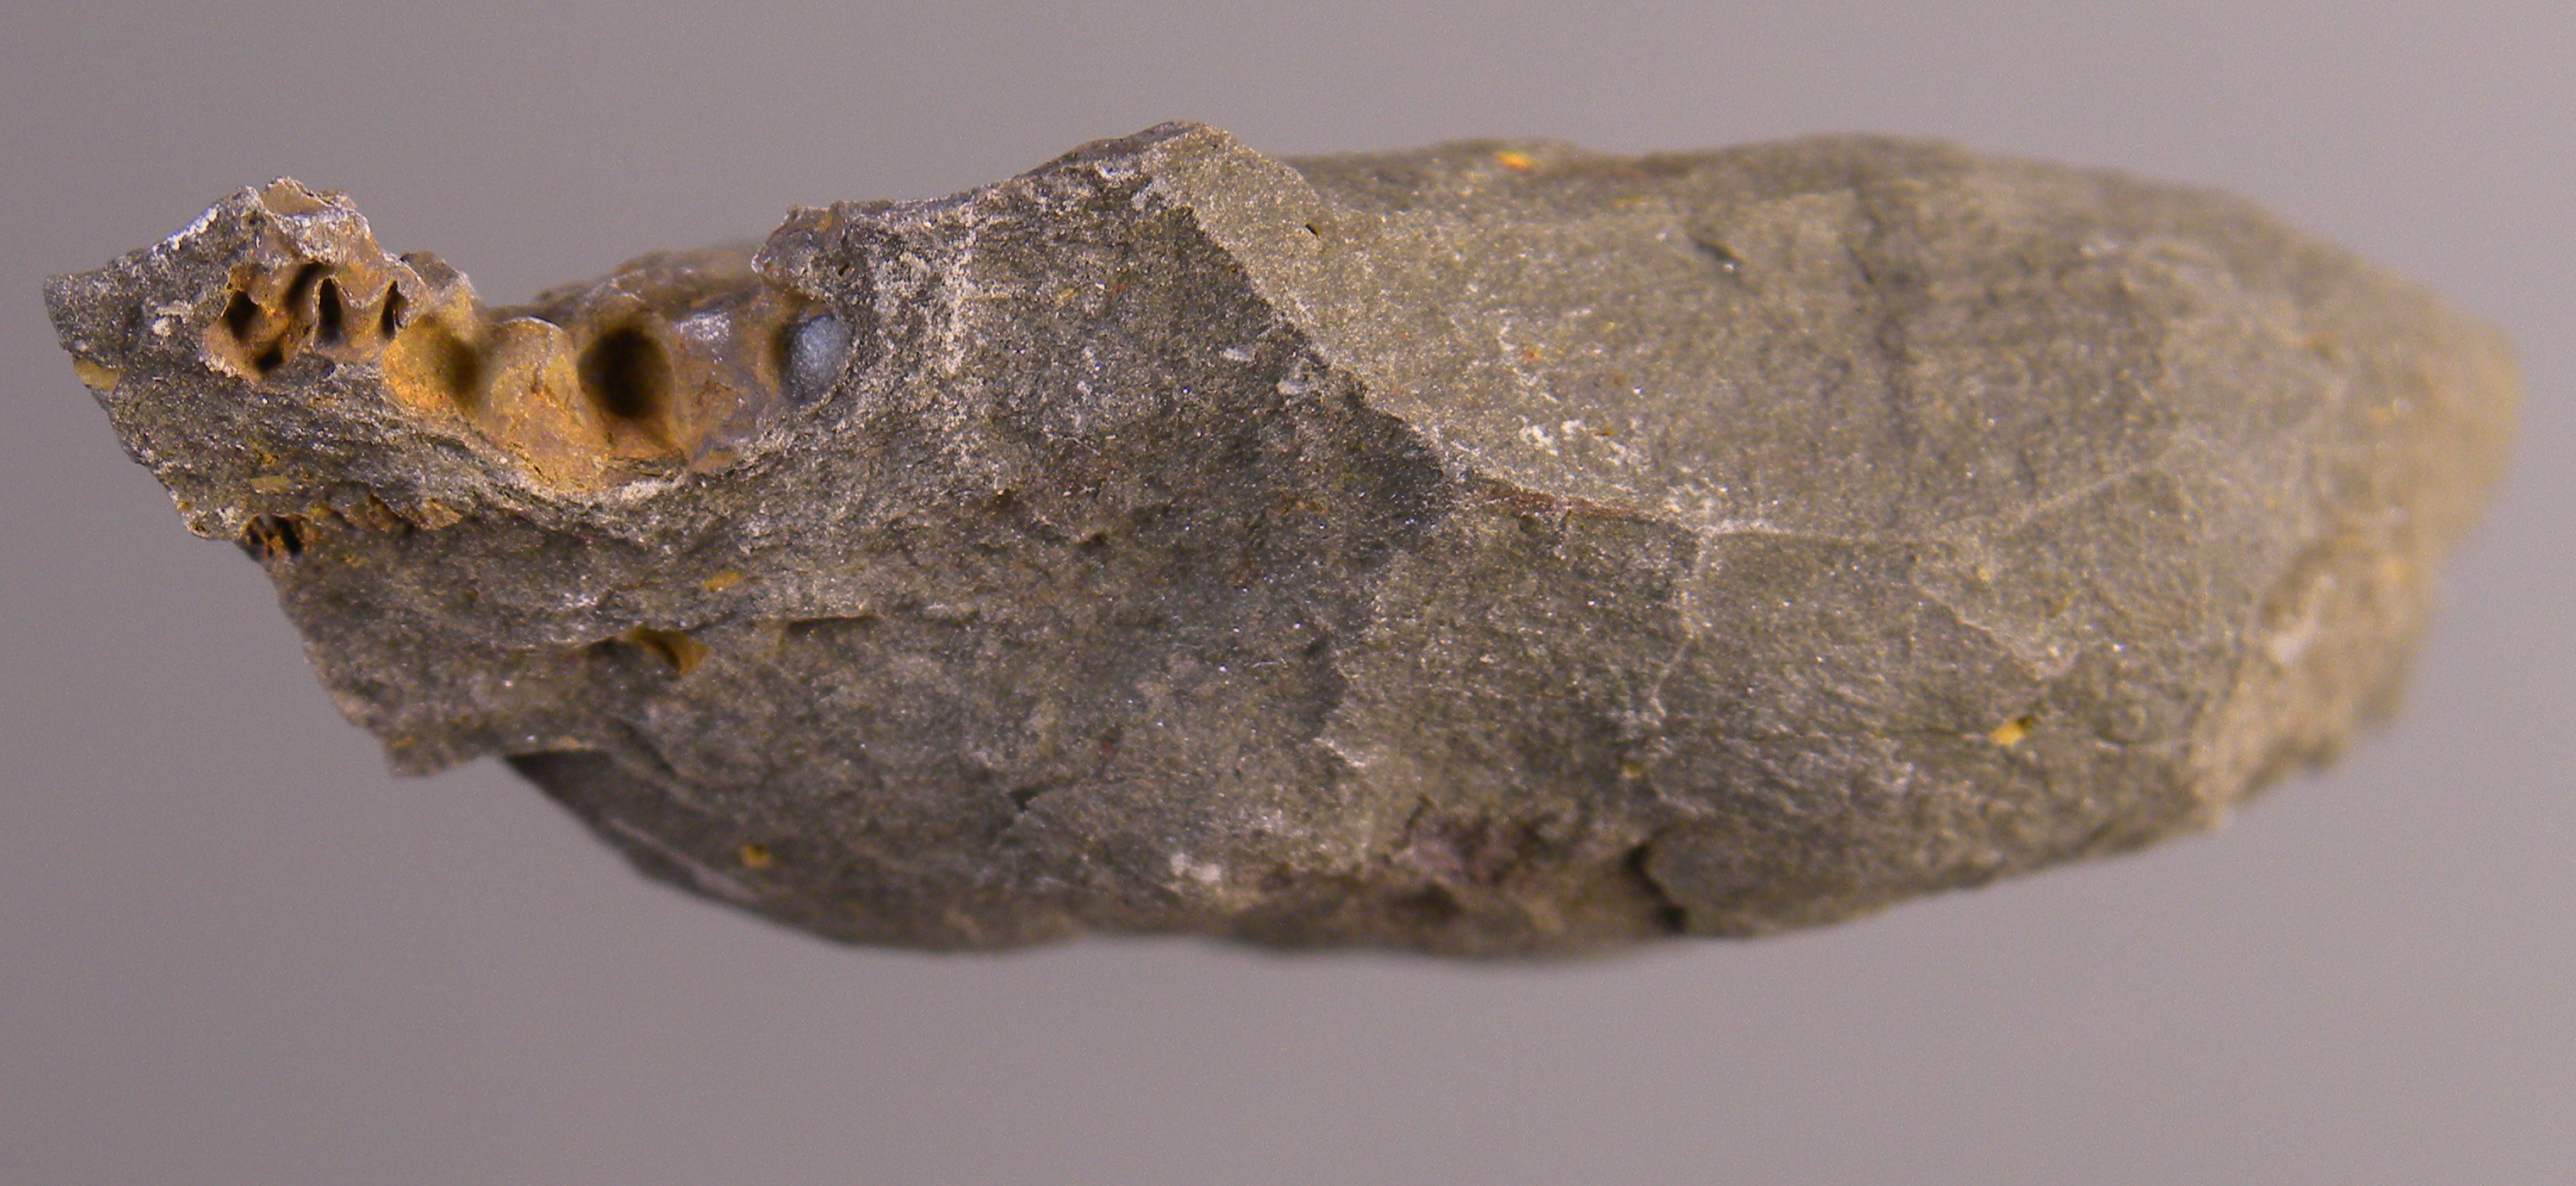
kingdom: Animalia
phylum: Echinodermata
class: Crinoidea
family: Hapalocrinidae
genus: Culicocrinus
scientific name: Culicocrinus
